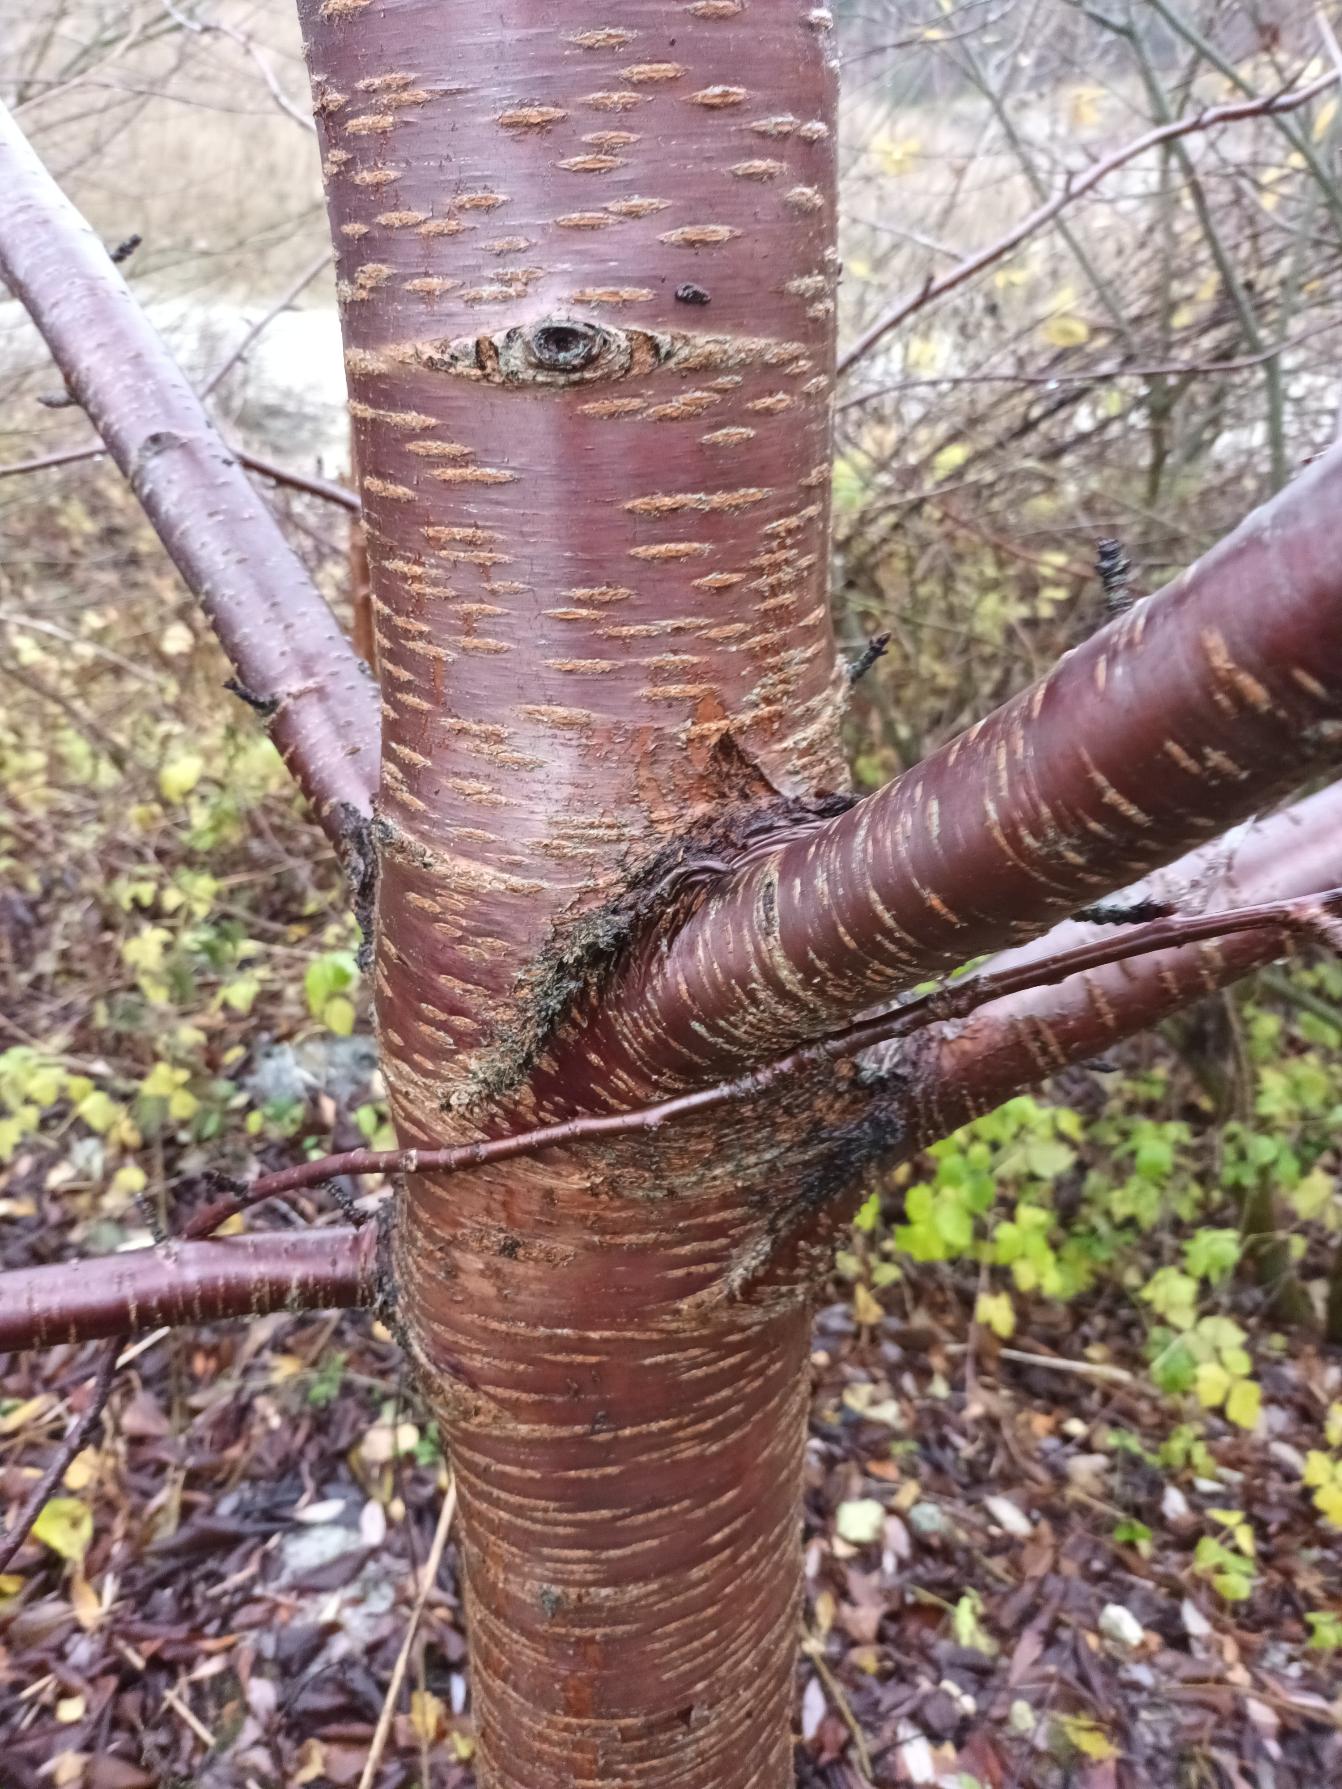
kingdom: Plantae
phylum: Tracheophyta
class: Magnoliopsida
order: Rosales
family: Rosaceae
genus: Prunus
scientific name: Prunus avium
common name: Fugle-kirsebær
